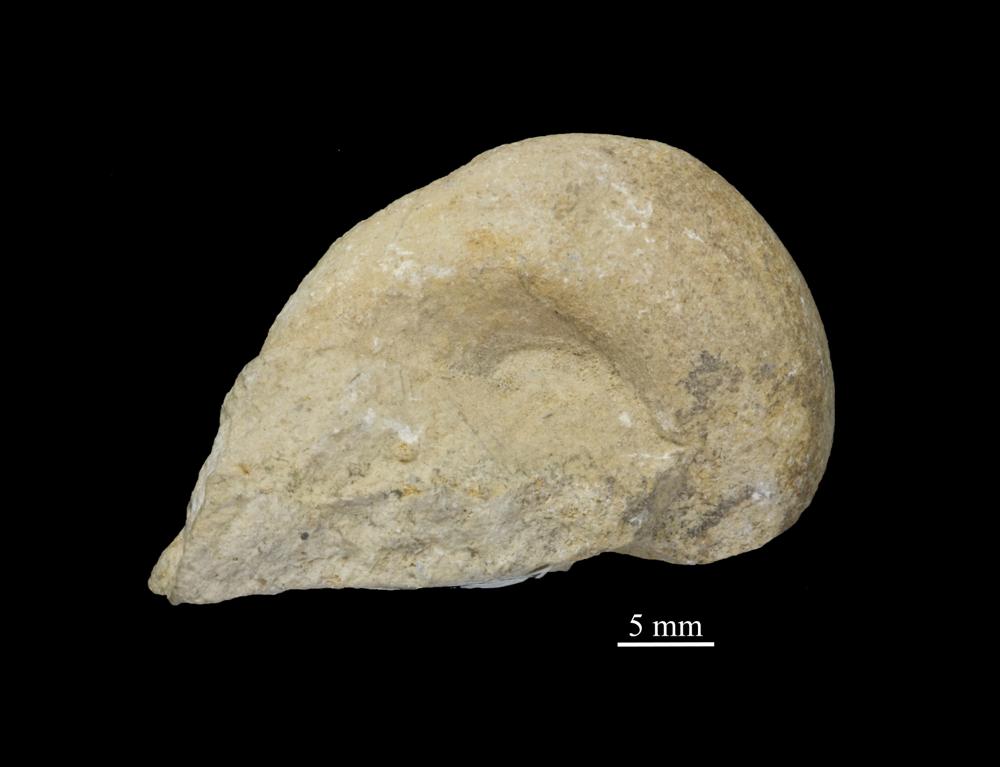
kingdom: Animalia
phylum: Mollusca
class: Gastropoda
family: Holopeidae
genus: Pachystrophia
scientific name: Pachystrophia Euomphalus devexus
